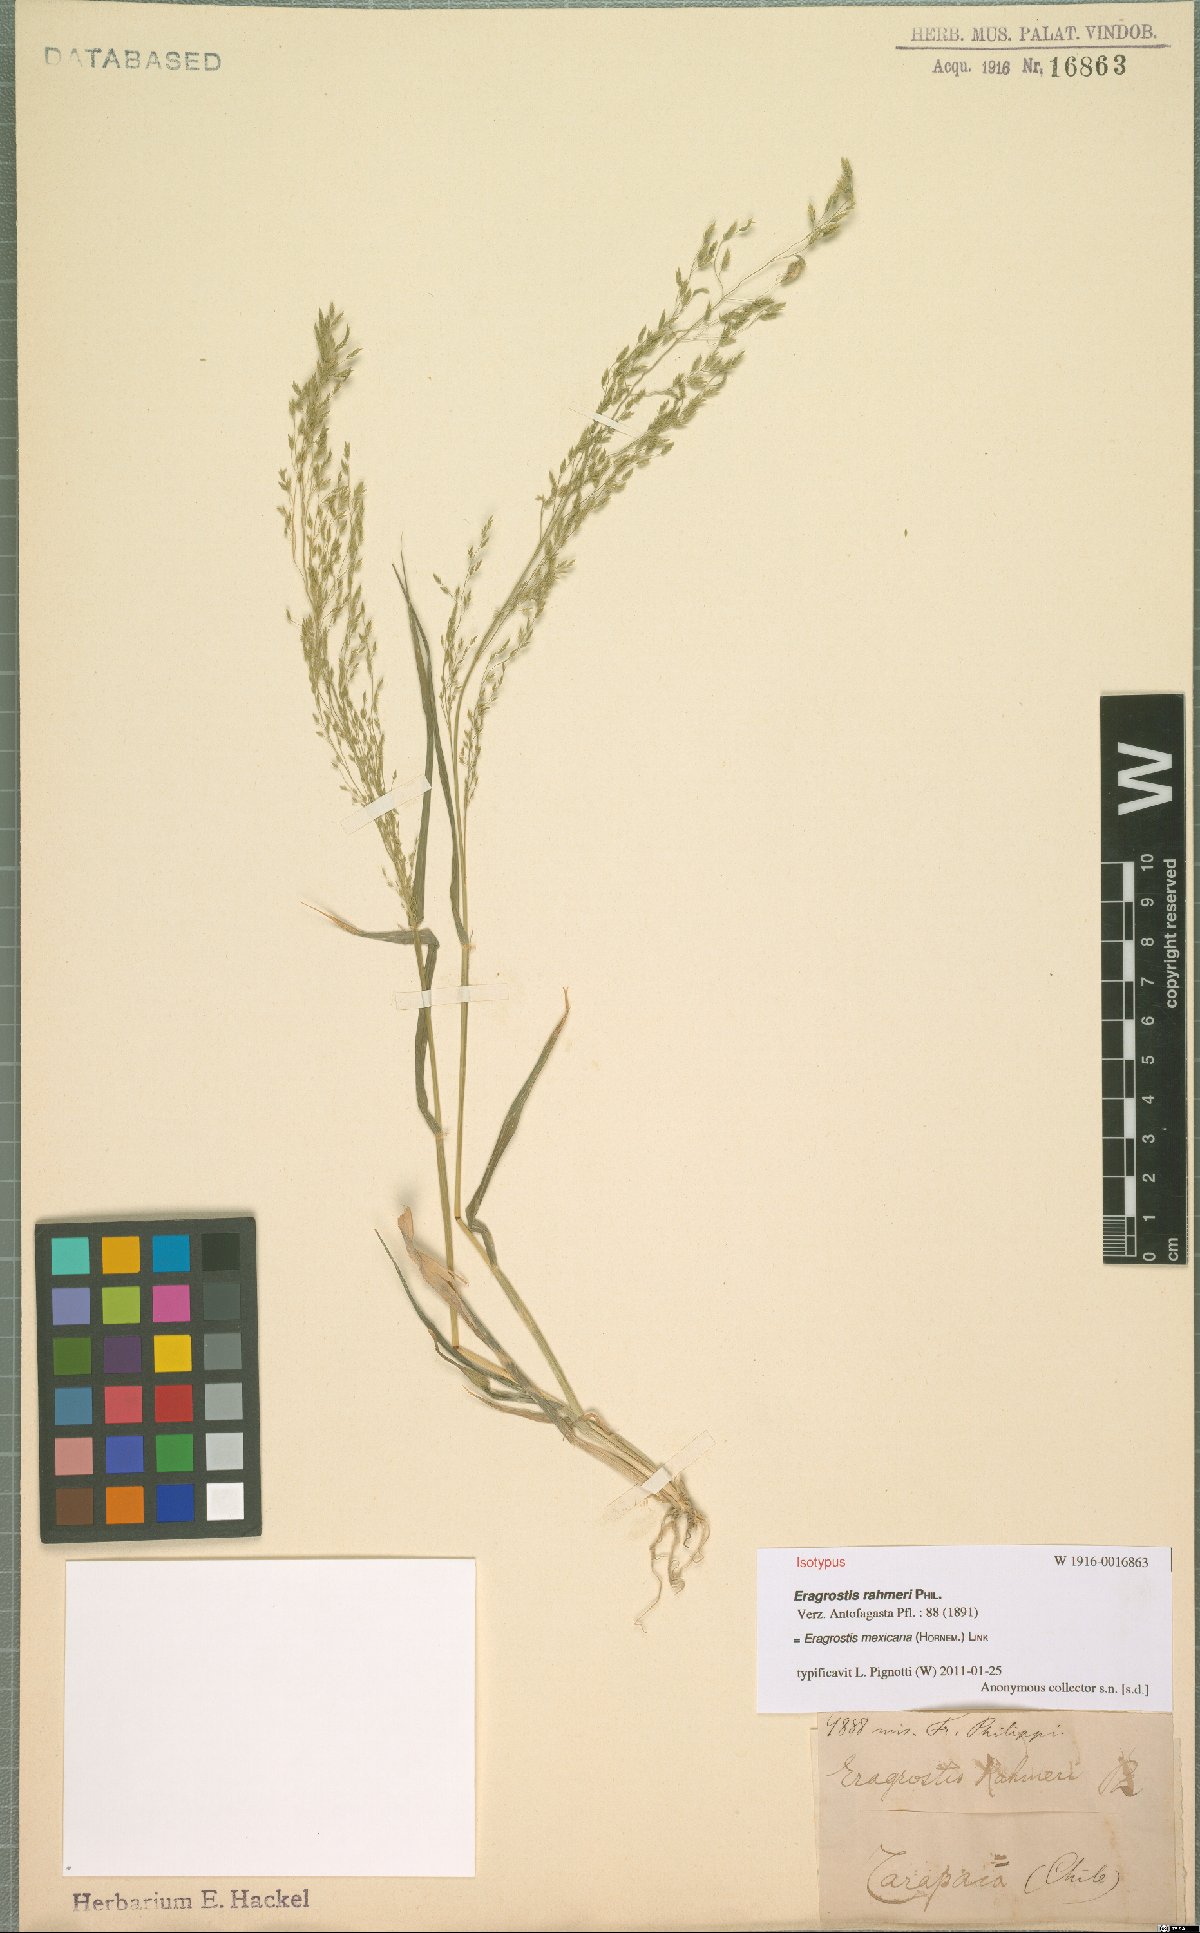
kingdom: Plantae
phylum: Tracheophyta
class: Liliopsida
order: Poales
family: Poaceae
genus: Eragrostis
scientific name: Eragrostis mexicana
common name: Mexican love grass
